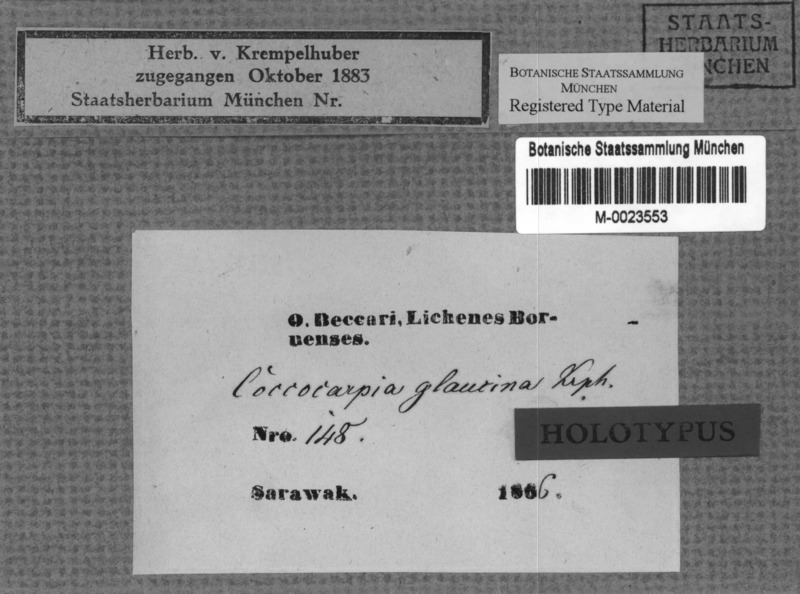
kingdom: Fungi
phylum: Ascomycota
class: Lecanoromycetes
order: Peltigerales
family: Coccocarpiaceae
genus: Coccocarpia
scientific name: Coccocarpia glaucina
